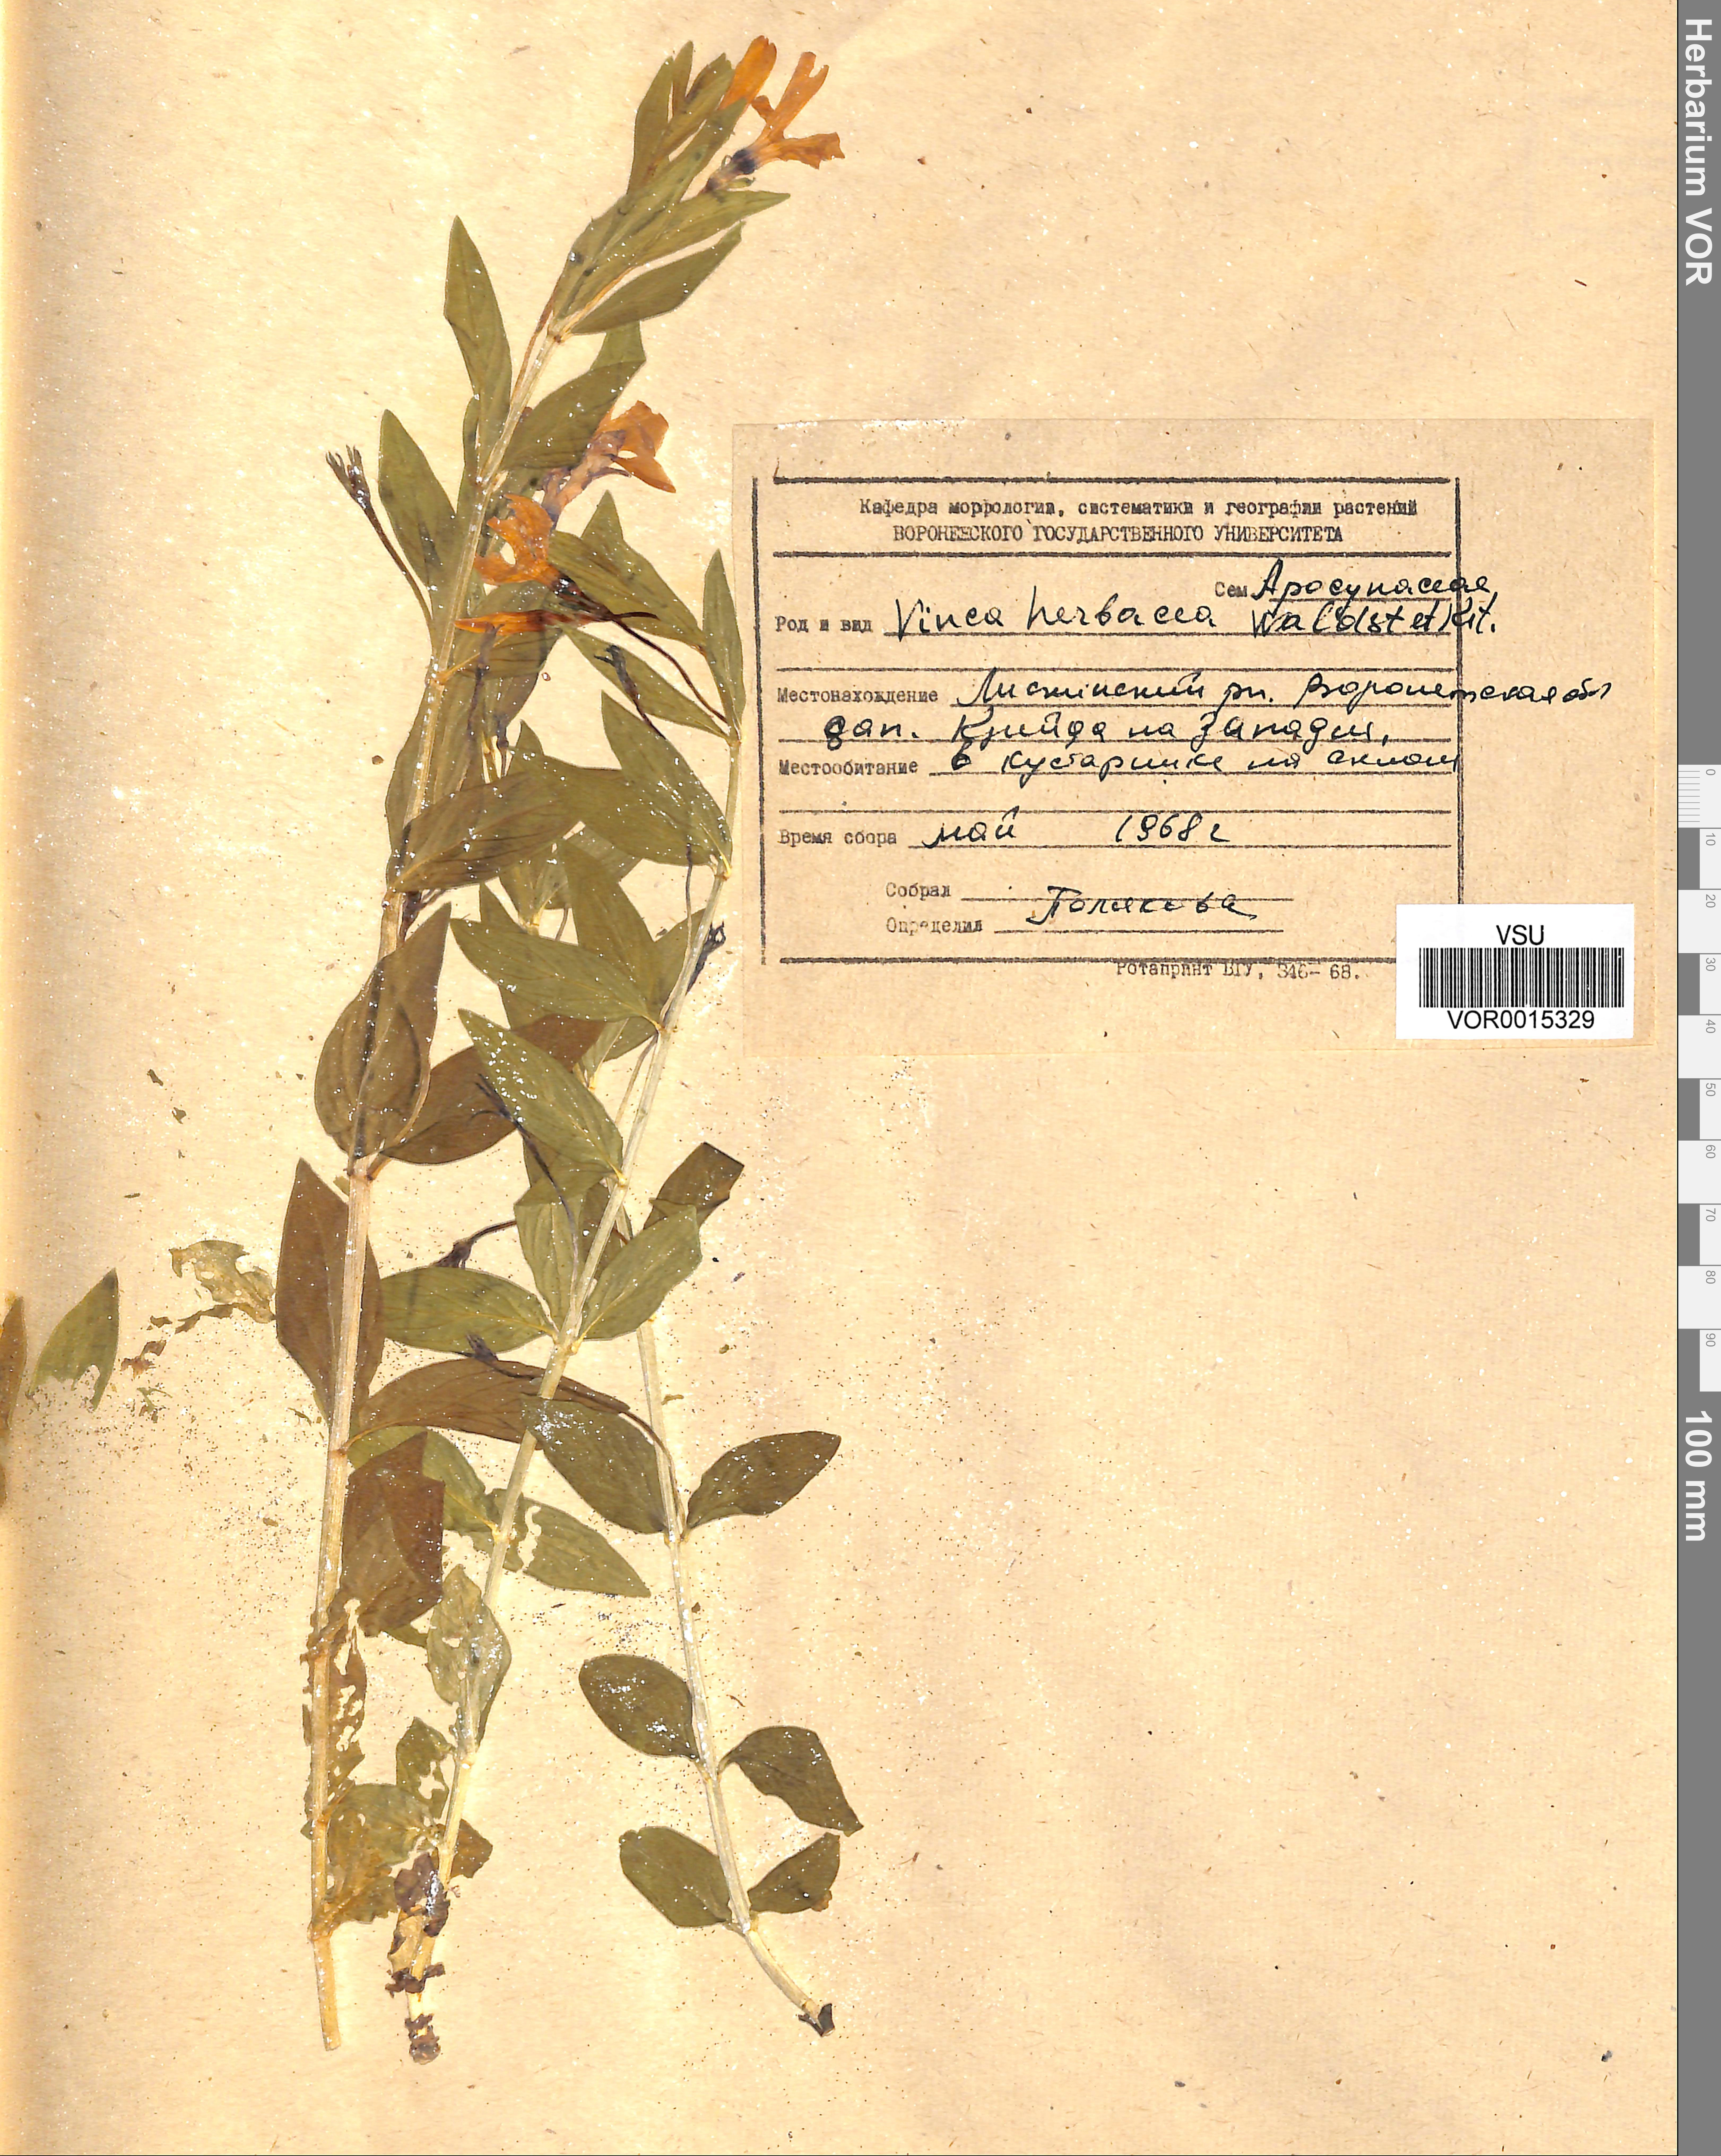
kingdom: Plantae
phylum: Tracheophyta
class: Magnoliopsida
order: Gentianales
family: Apocynaceae
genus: Vinca
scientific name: Vinca herbacea
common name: Herbaceous periwinkle
